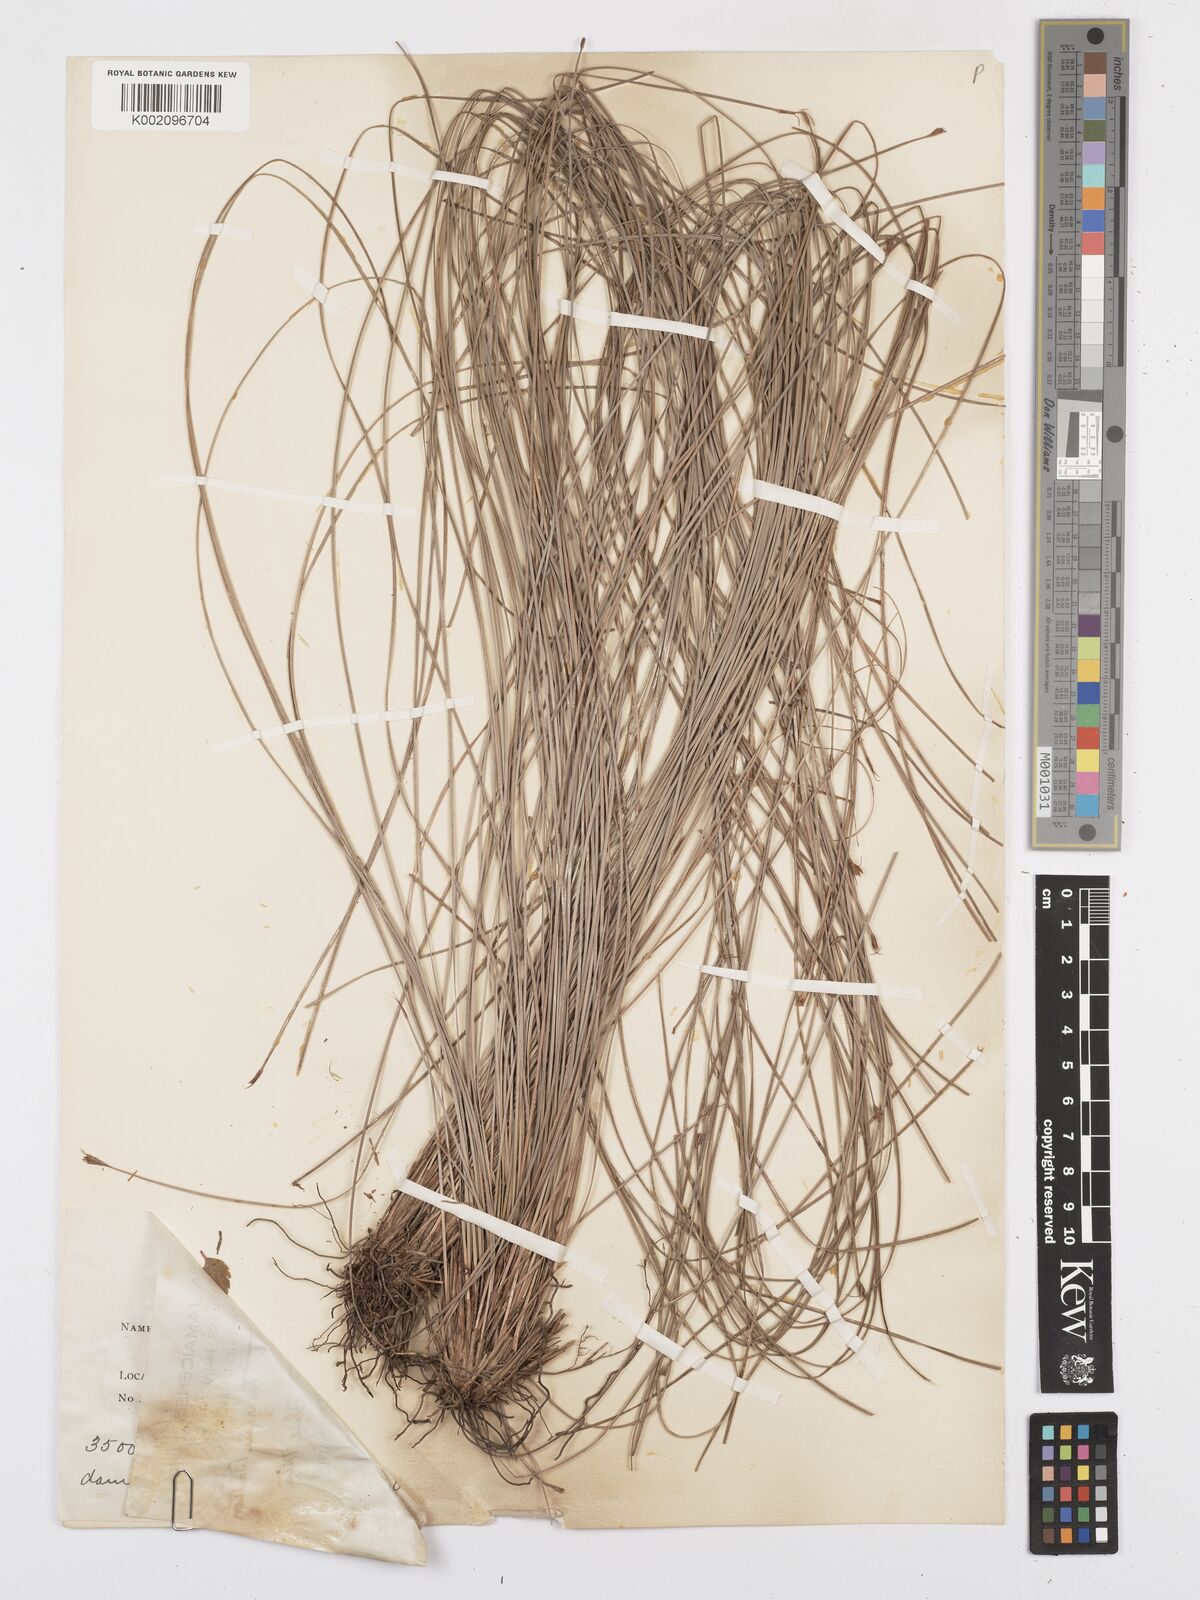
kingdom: Plantae
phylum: Tracheophyta
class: Liliopsida
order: Poales
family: Cyperaceae
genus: Bulbostylis
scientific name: Bulbostylis
